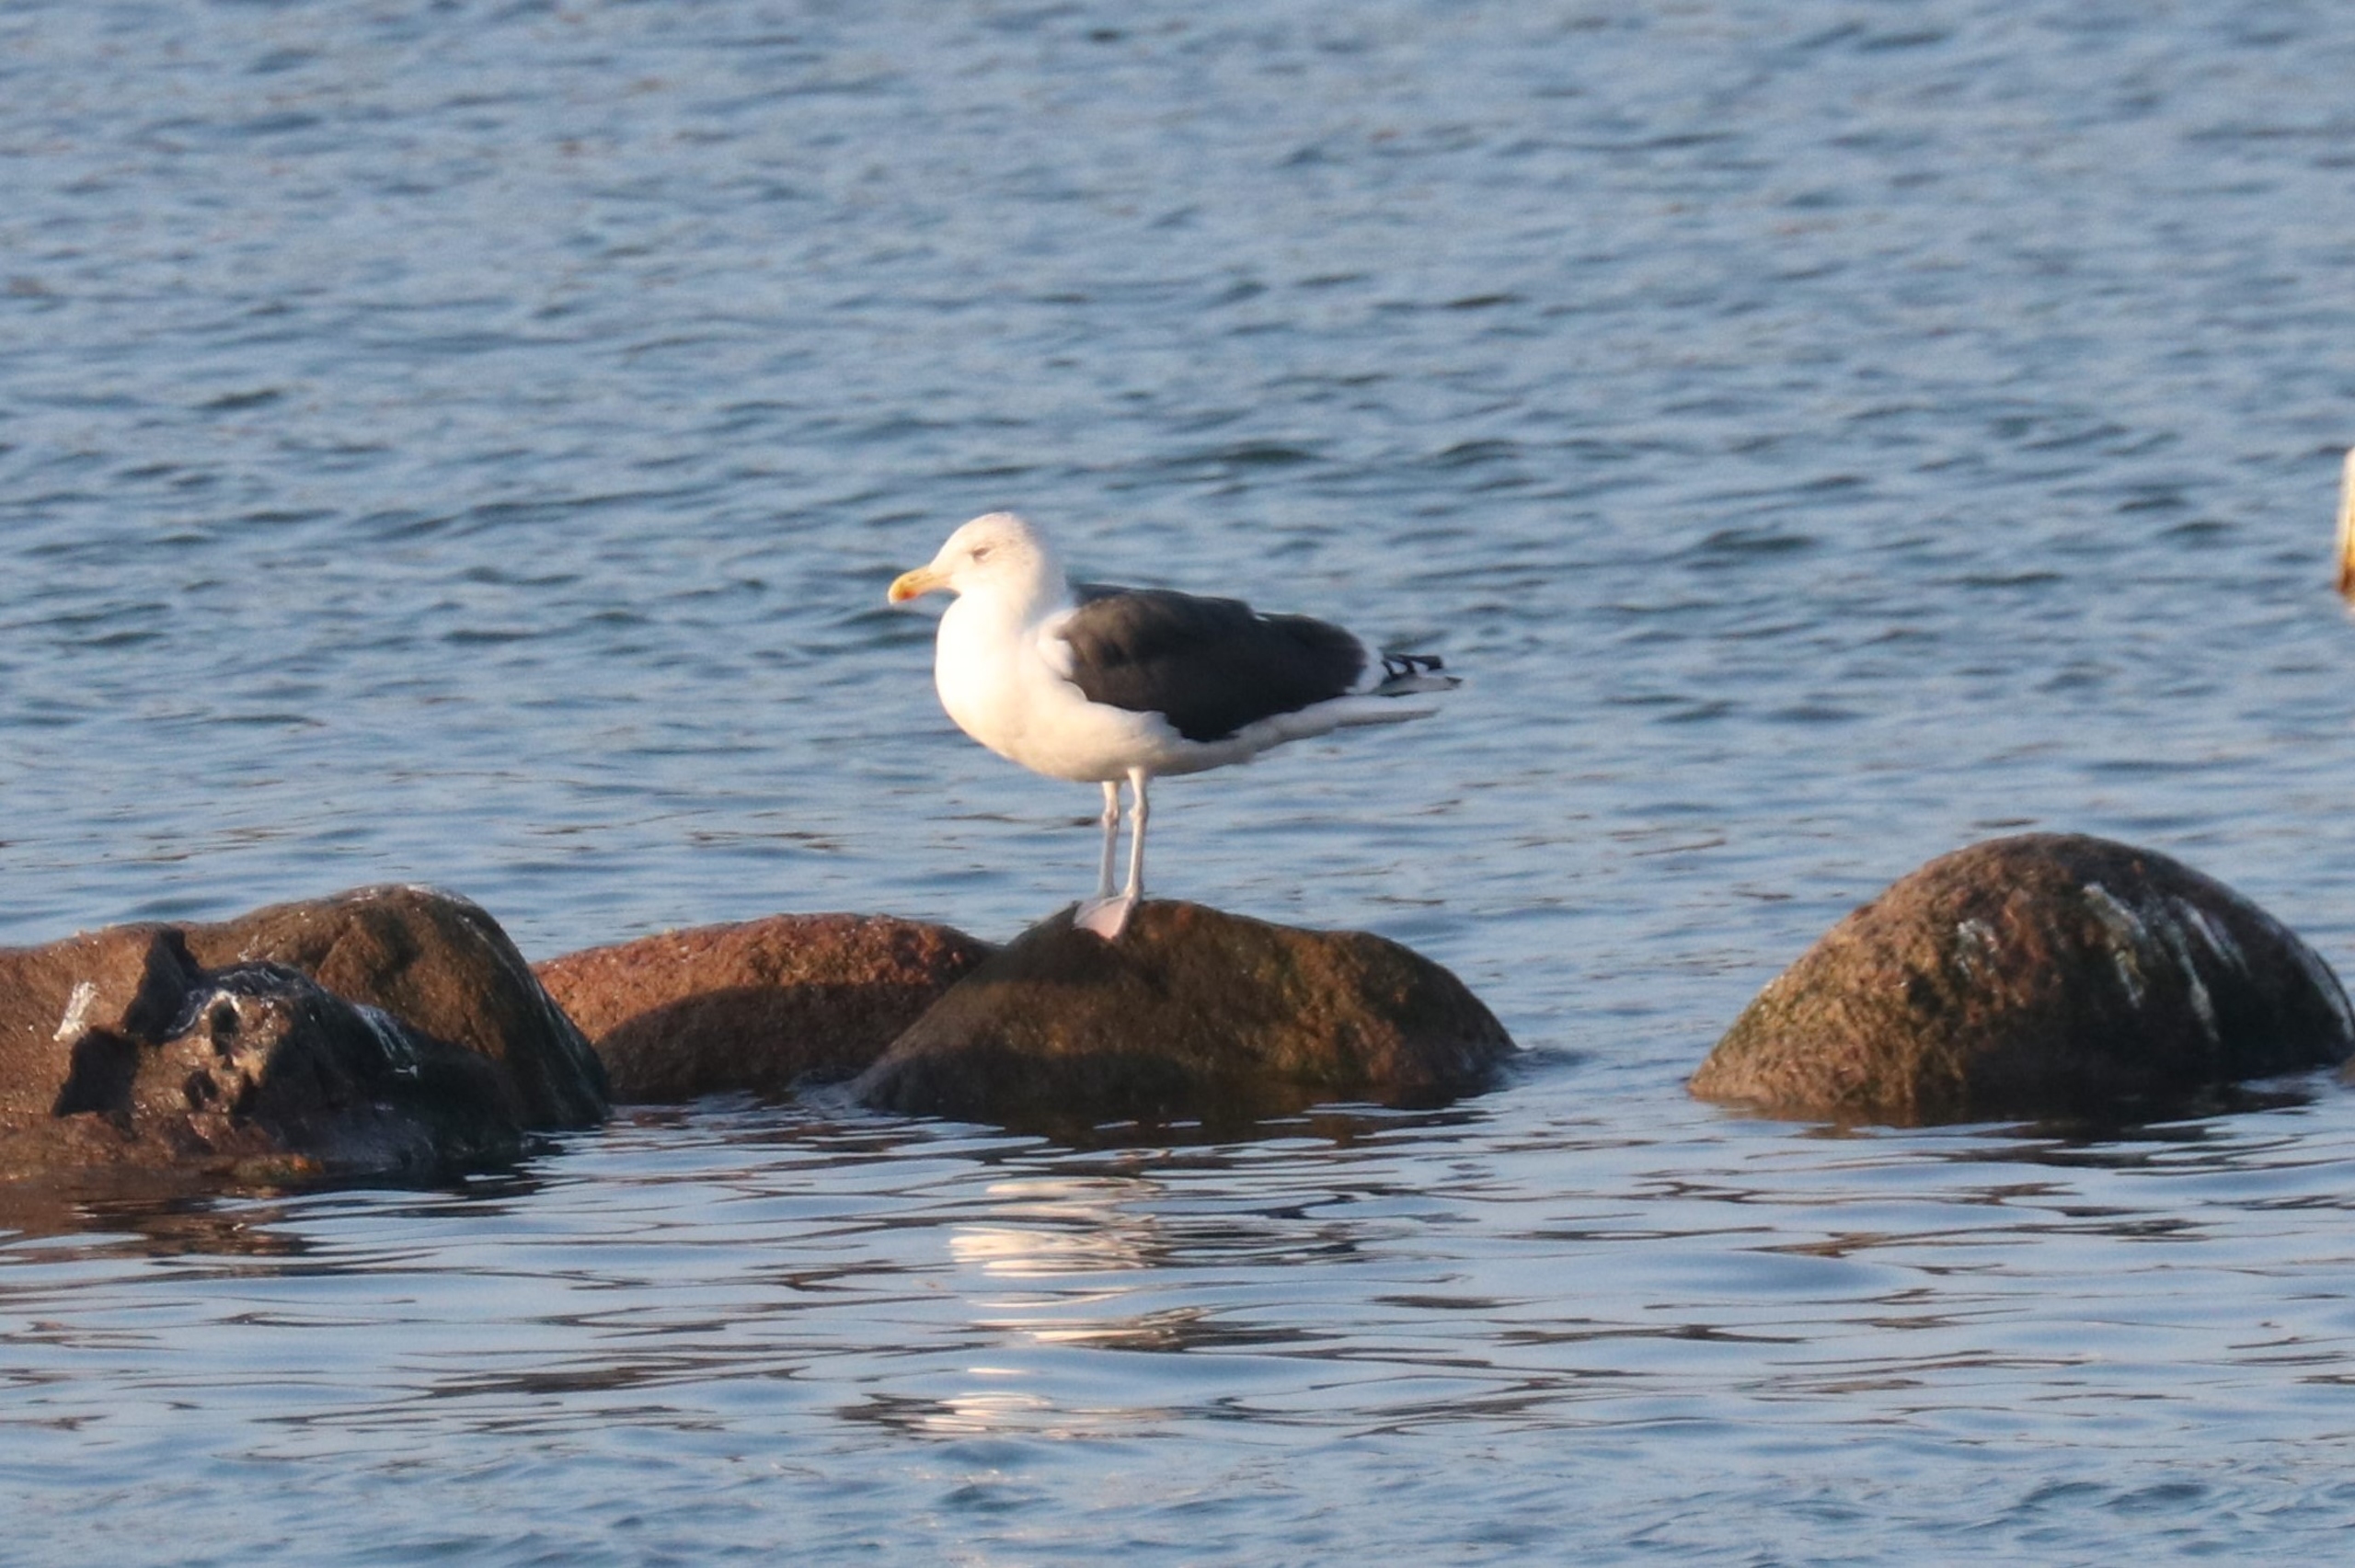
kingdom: Animalia
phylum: Chordata
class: Aves
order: Charadriiformes
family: Laridae
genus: Larus
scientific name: Larus marinus
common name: Svartbag
